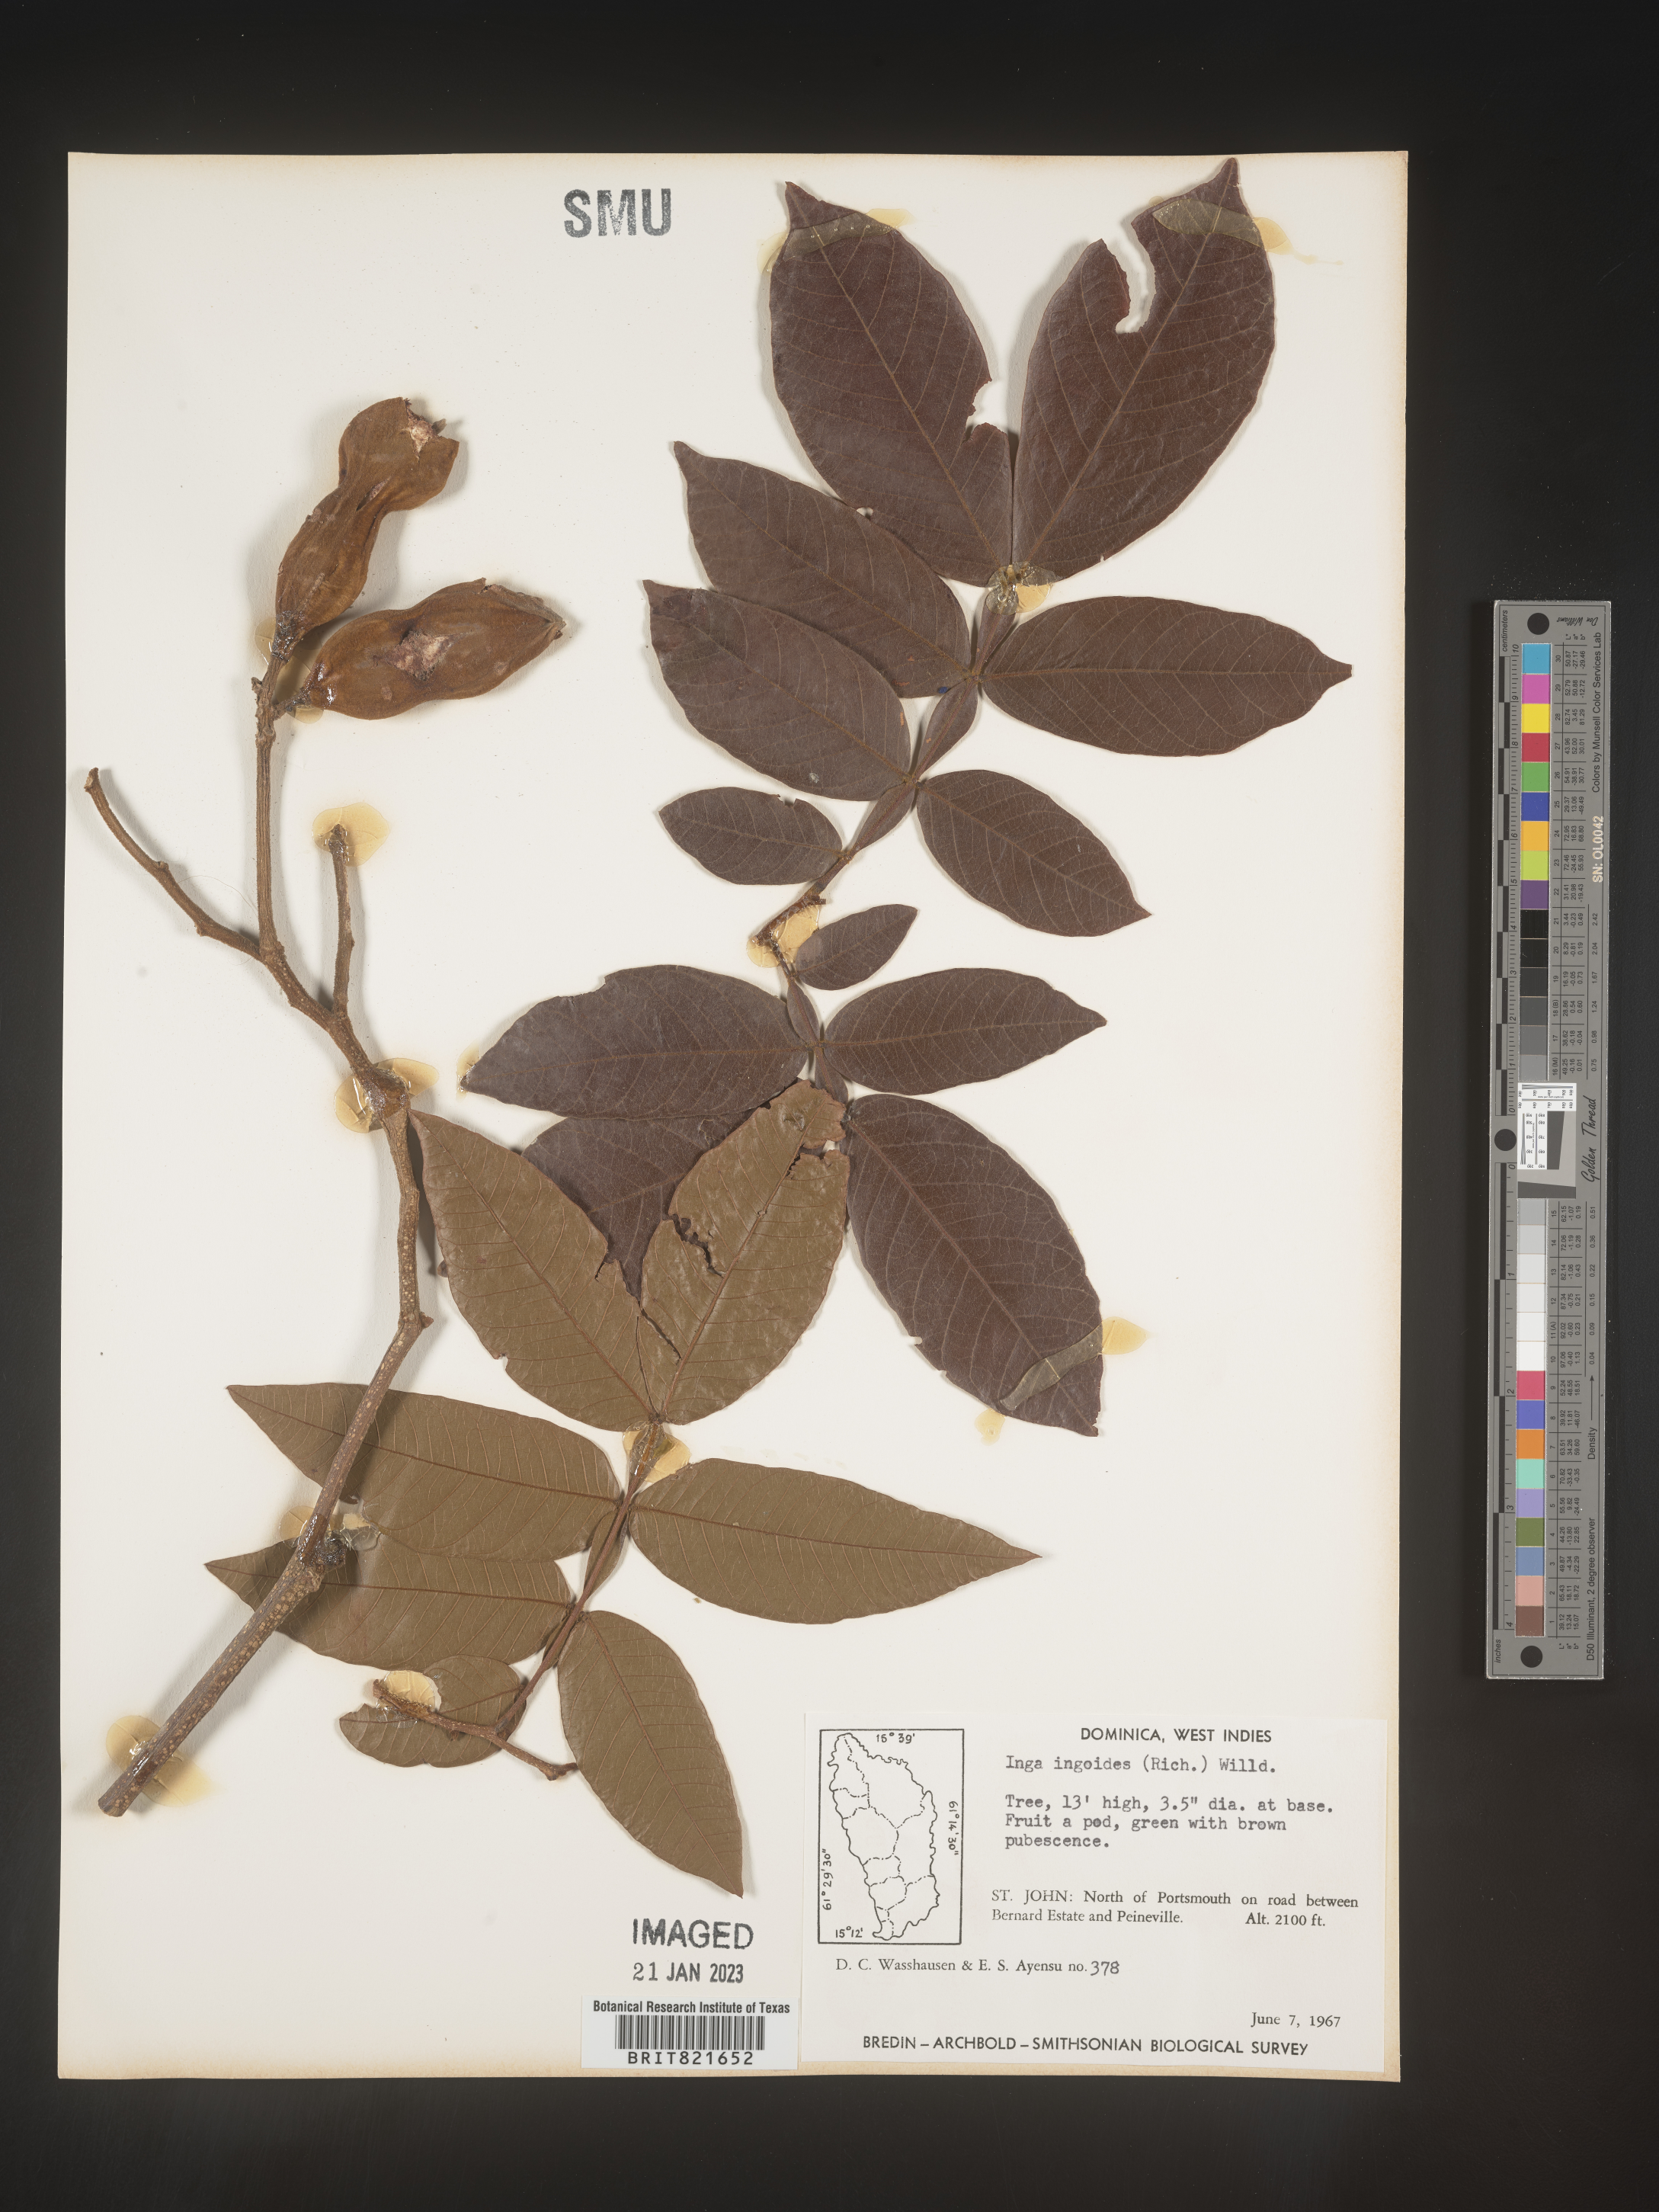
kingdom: Plantae
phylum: Tracheophyta
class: Magnoliopsida
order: Fabales
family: Fabaceae
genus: Inga
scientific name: Inga
